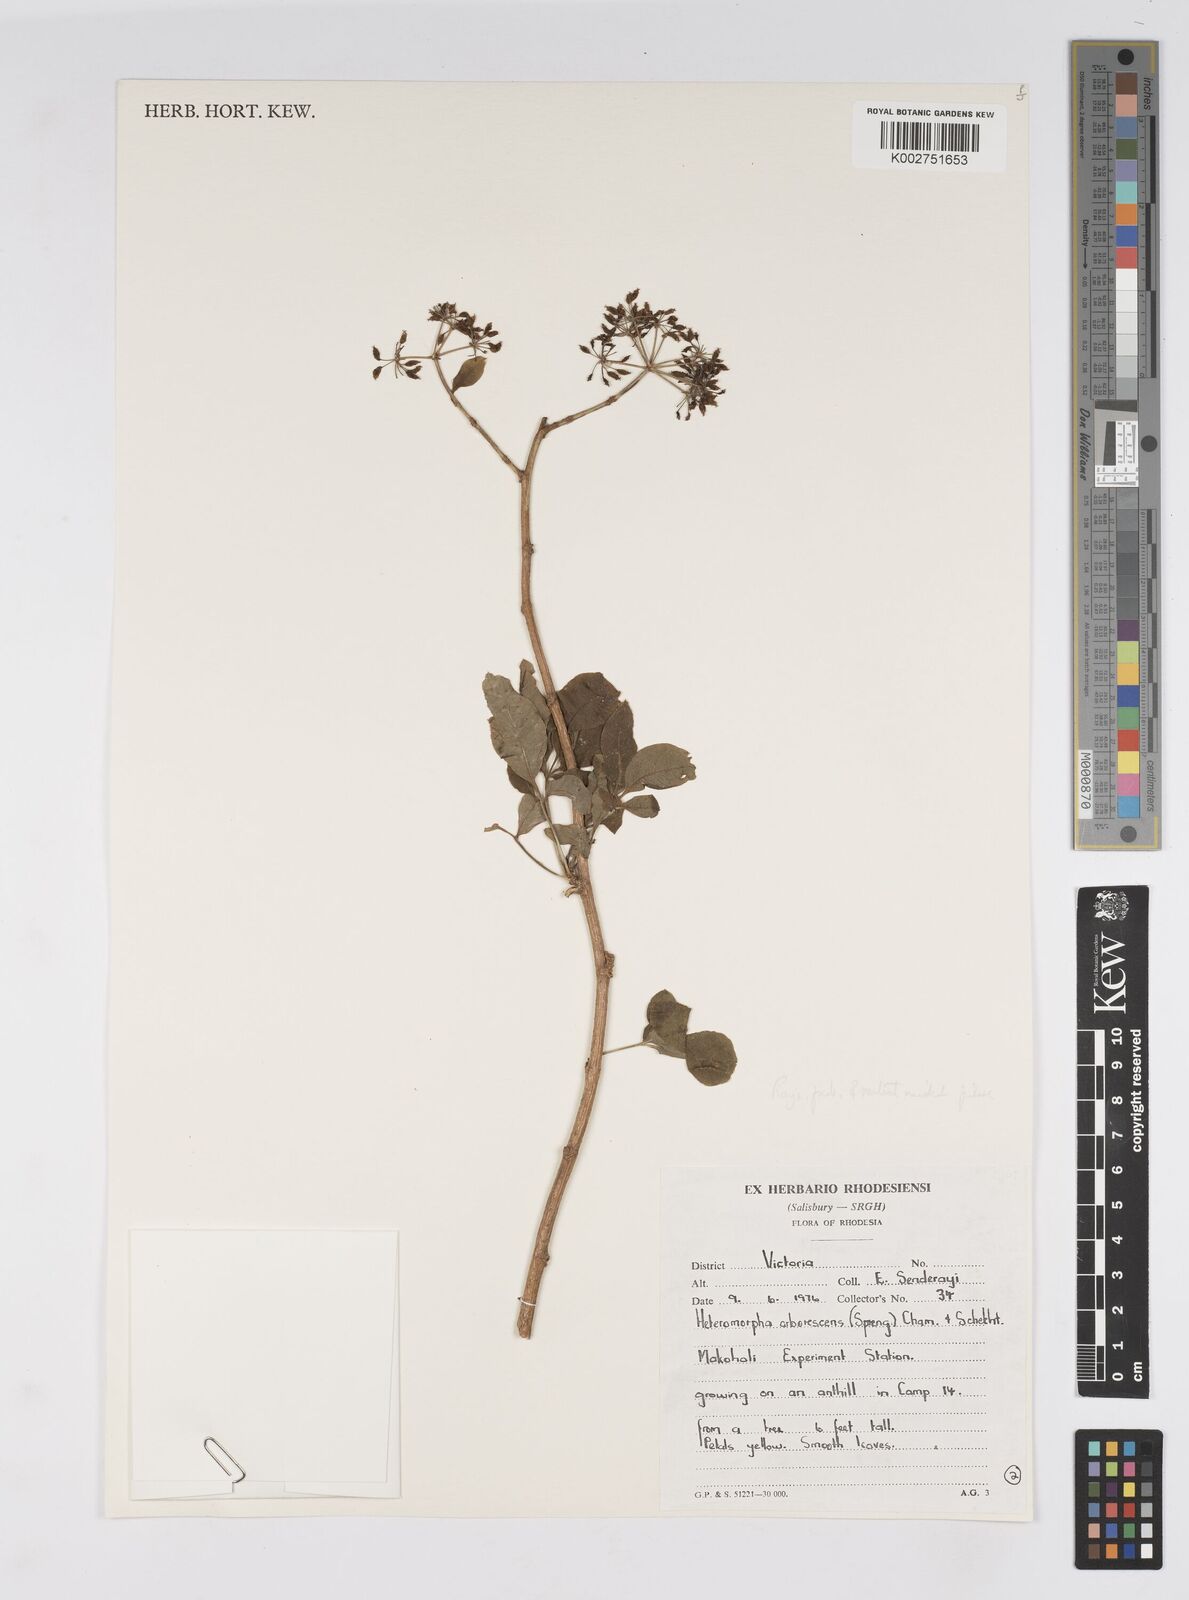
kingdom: Plantae
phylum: Tracheophyta
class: Magnoliopsida
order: Apiales
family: Apiaceae
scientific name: Apiaceae
